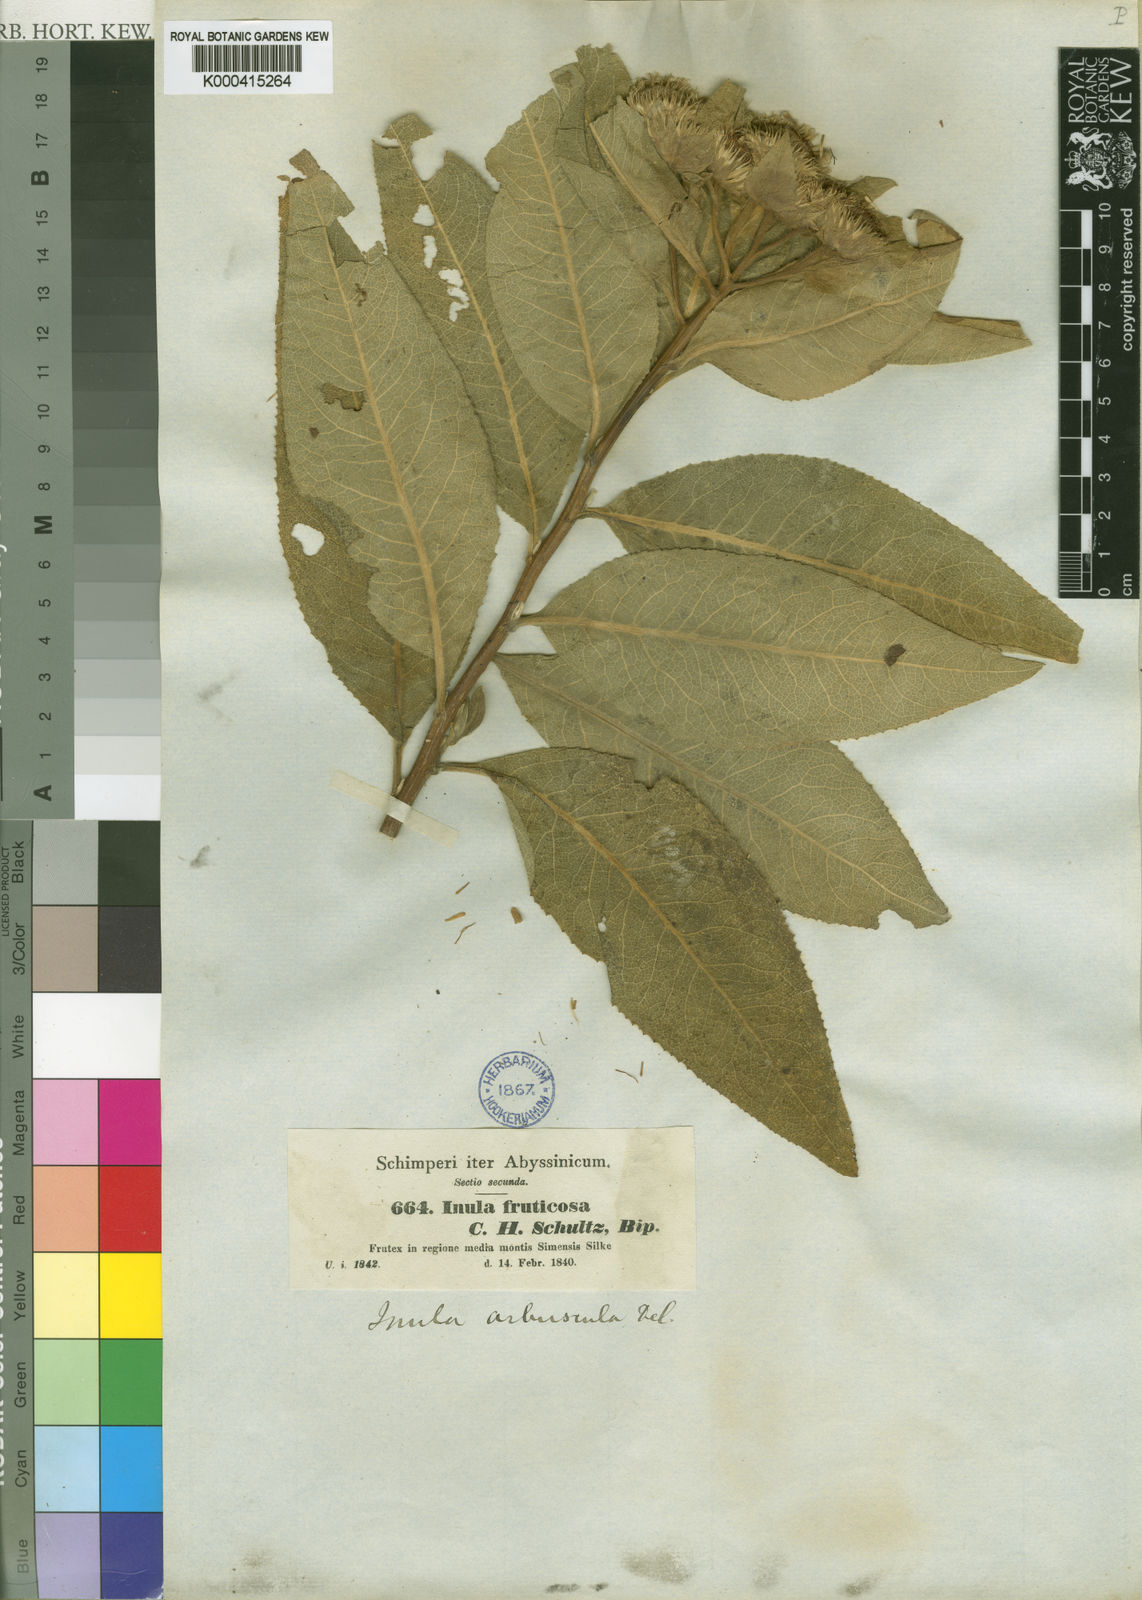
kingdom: Plantae
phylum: Tracheophyta
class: Magnoliopsida
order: Asterales
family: Asteraceae
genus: Inula
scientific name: Inula arbuscula
